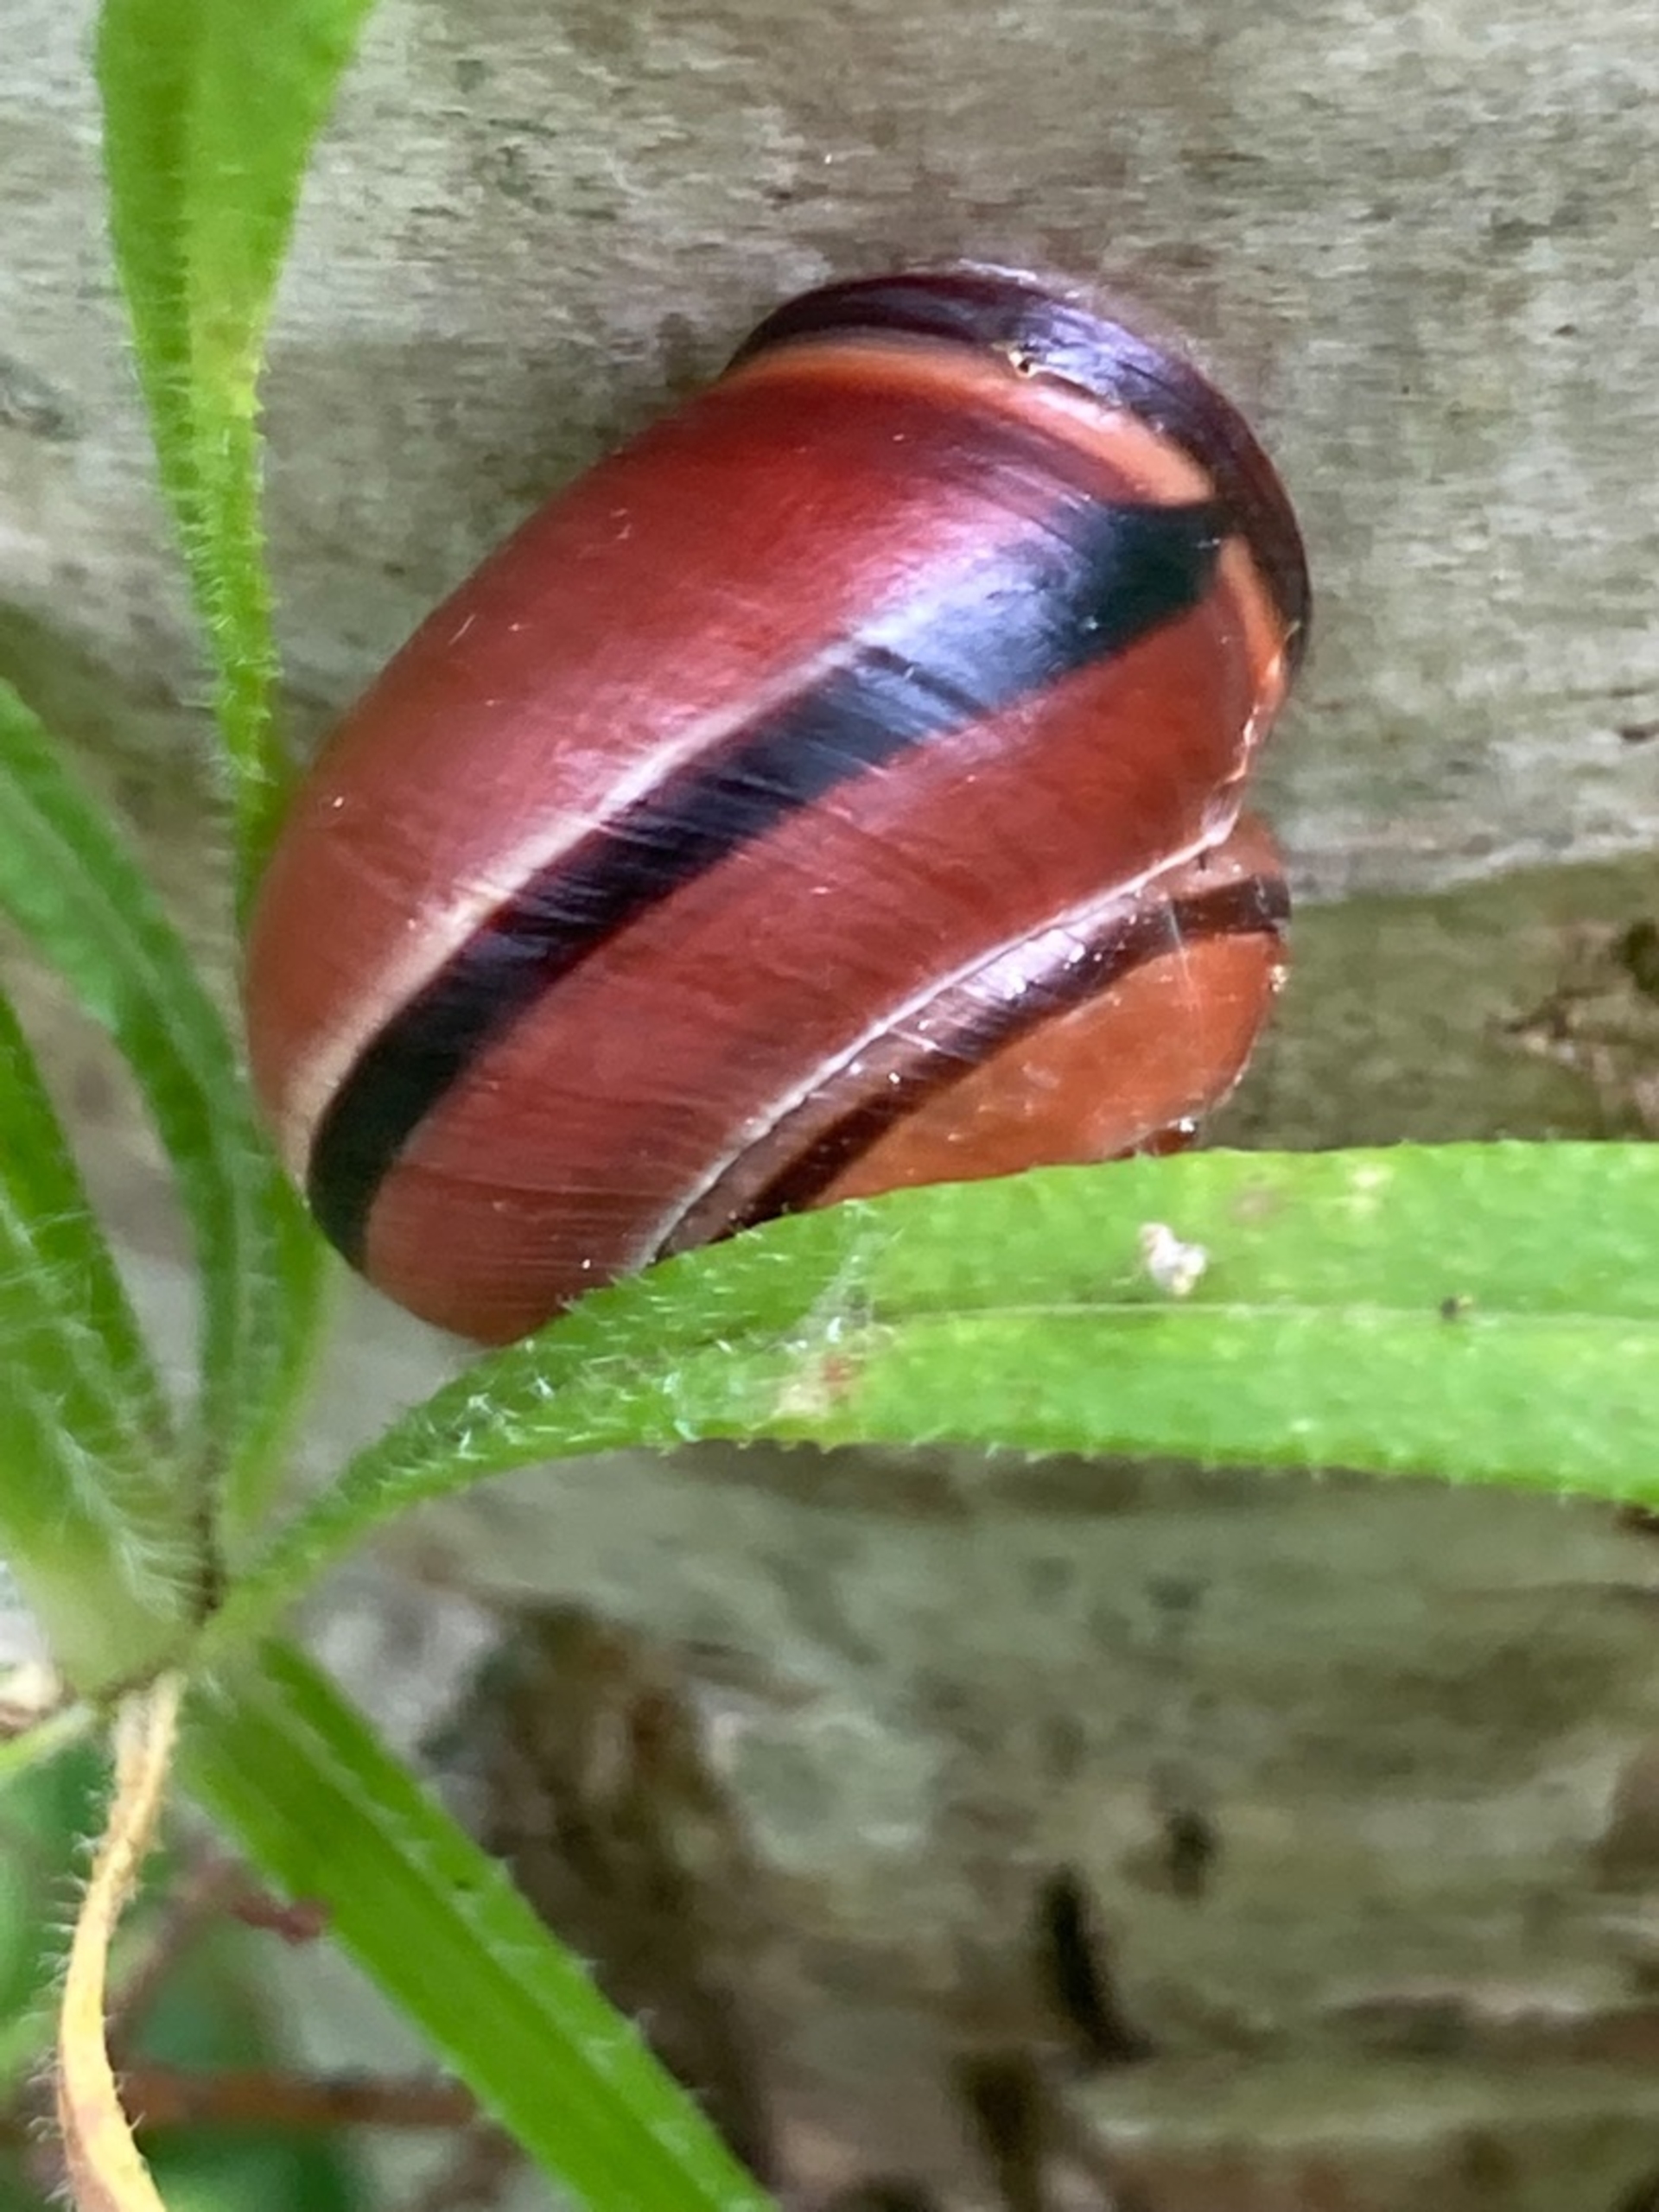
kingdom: Animalia
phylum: Mollusca
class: Gastropoda
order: Stylommatophora
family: Helicidae
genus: Cepaea
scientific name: Cepaea nemoralis
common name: Lundsnegl
